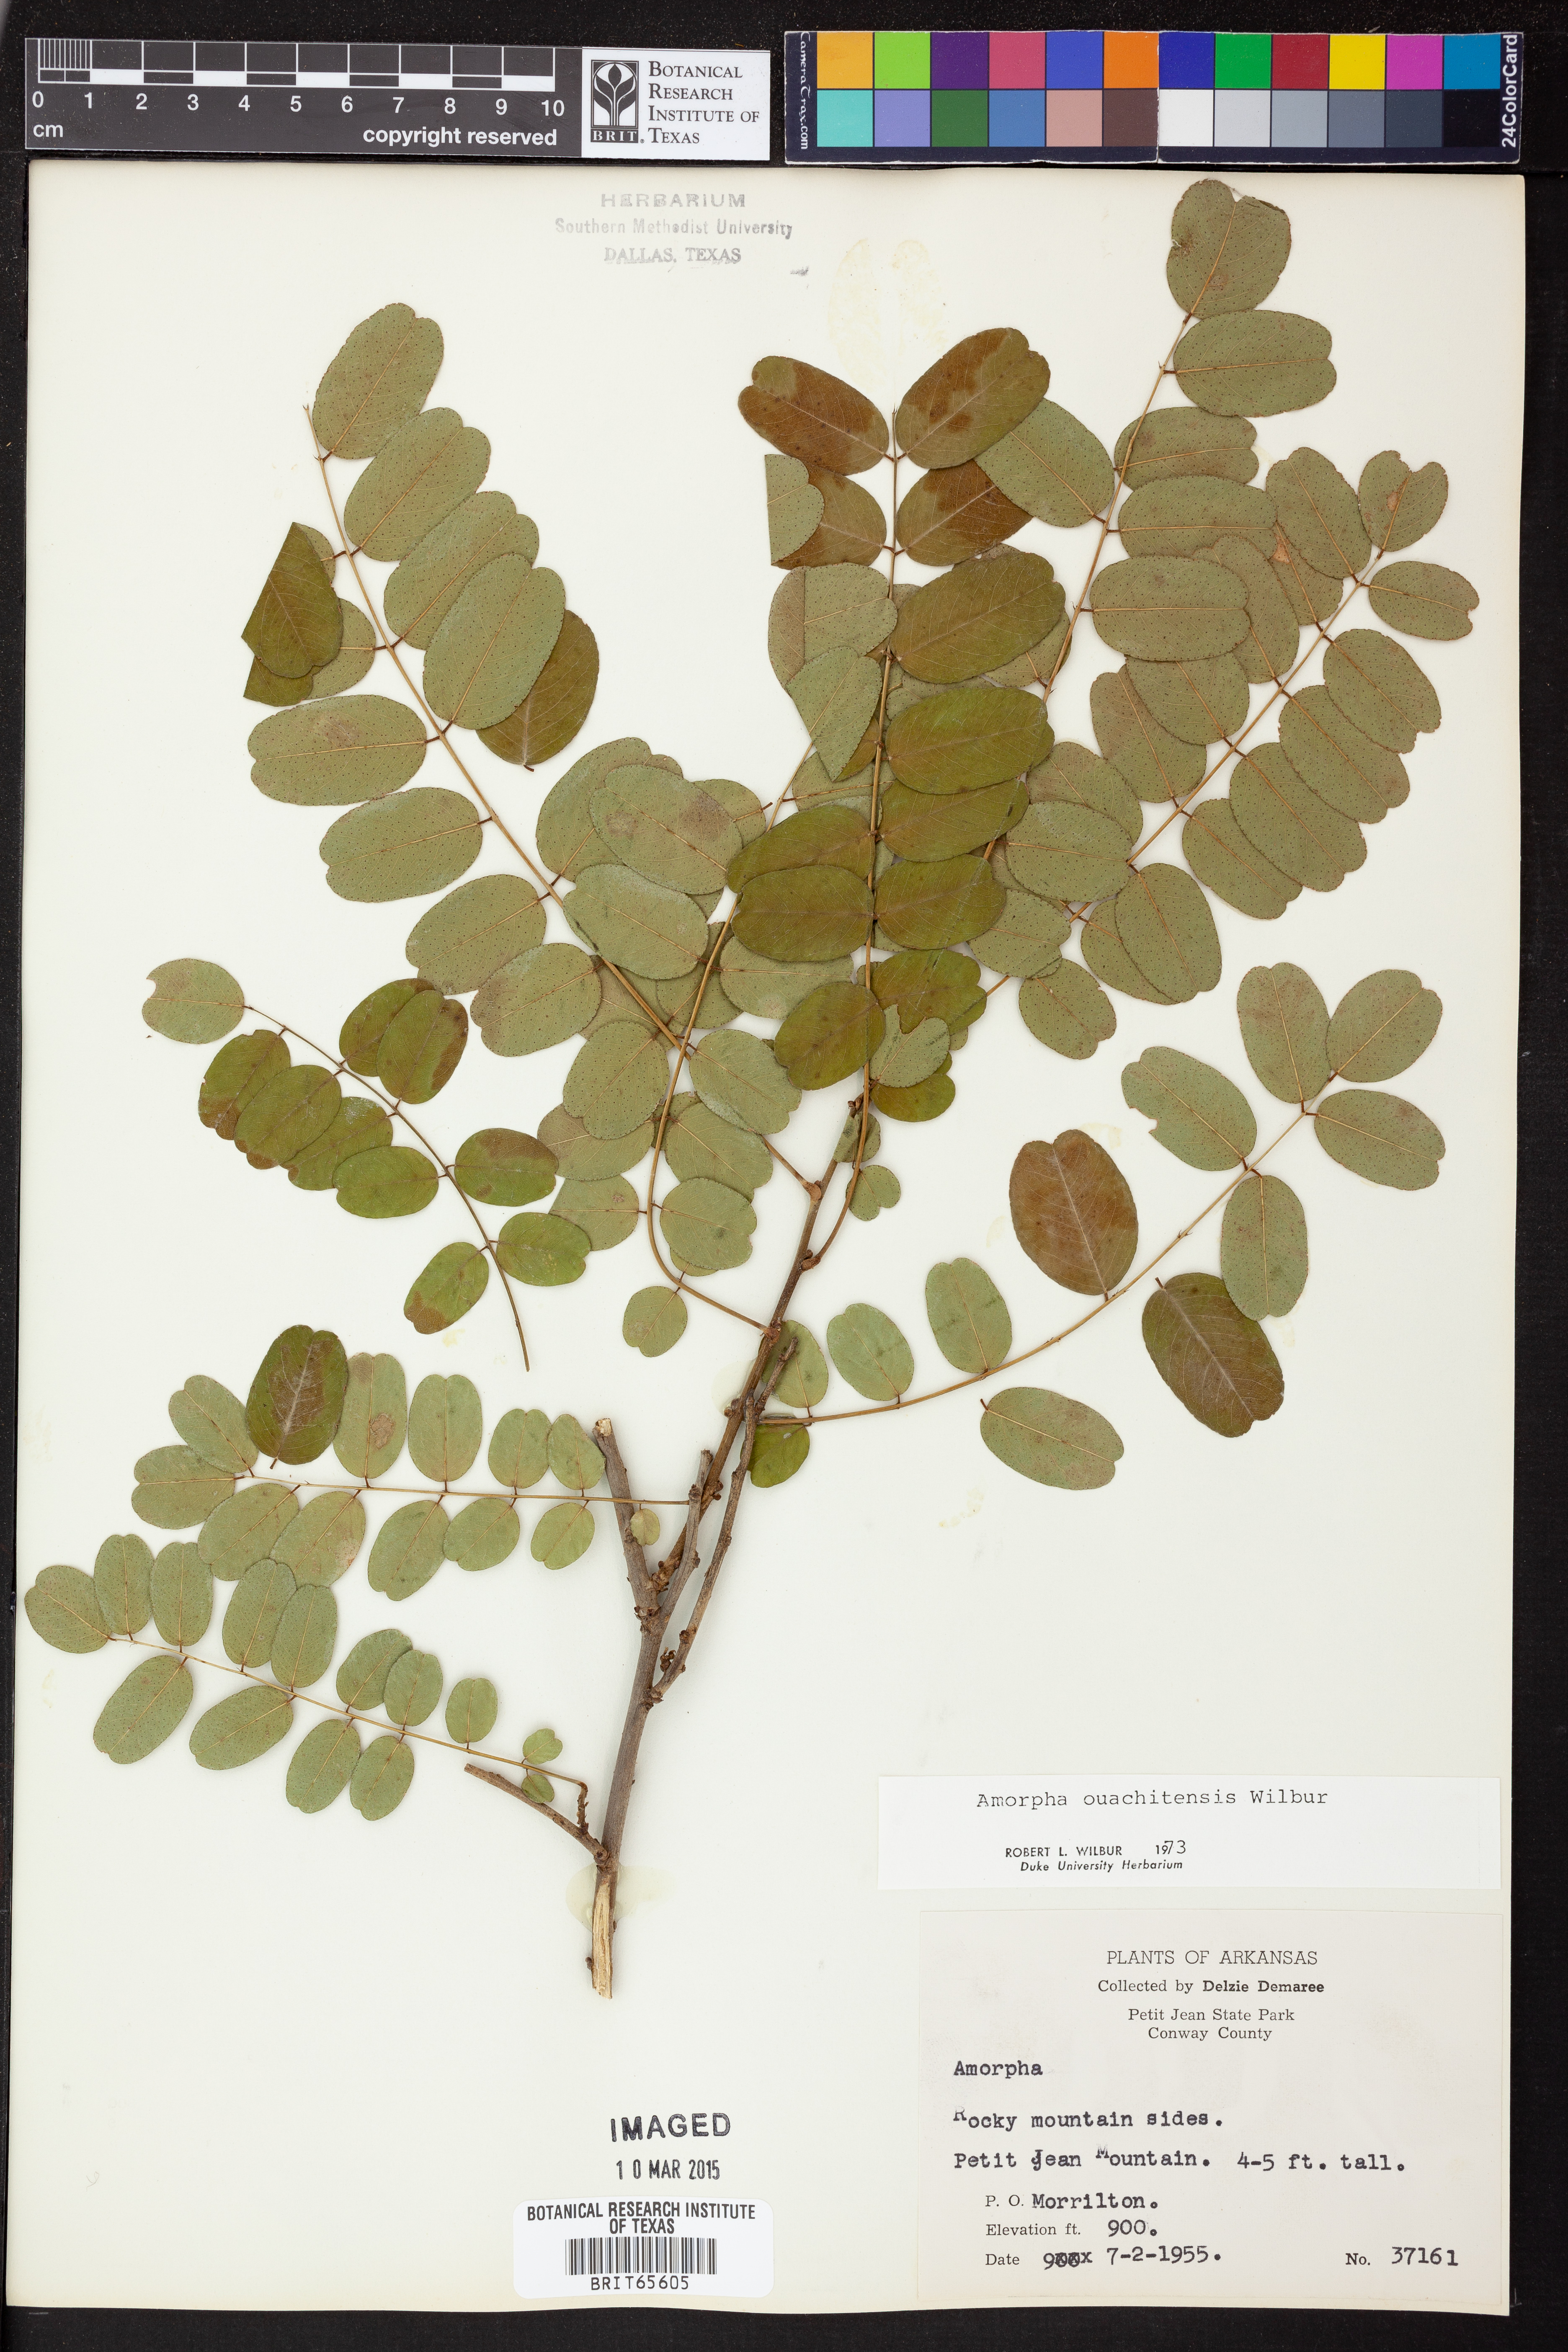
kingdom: Plantae
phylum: Tracheophyta
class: Magnoliopsida
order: Fabales
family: Fabaceae
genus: Amorpha
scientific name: Amorpha ouachitensis
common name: Ouachita false indigo
